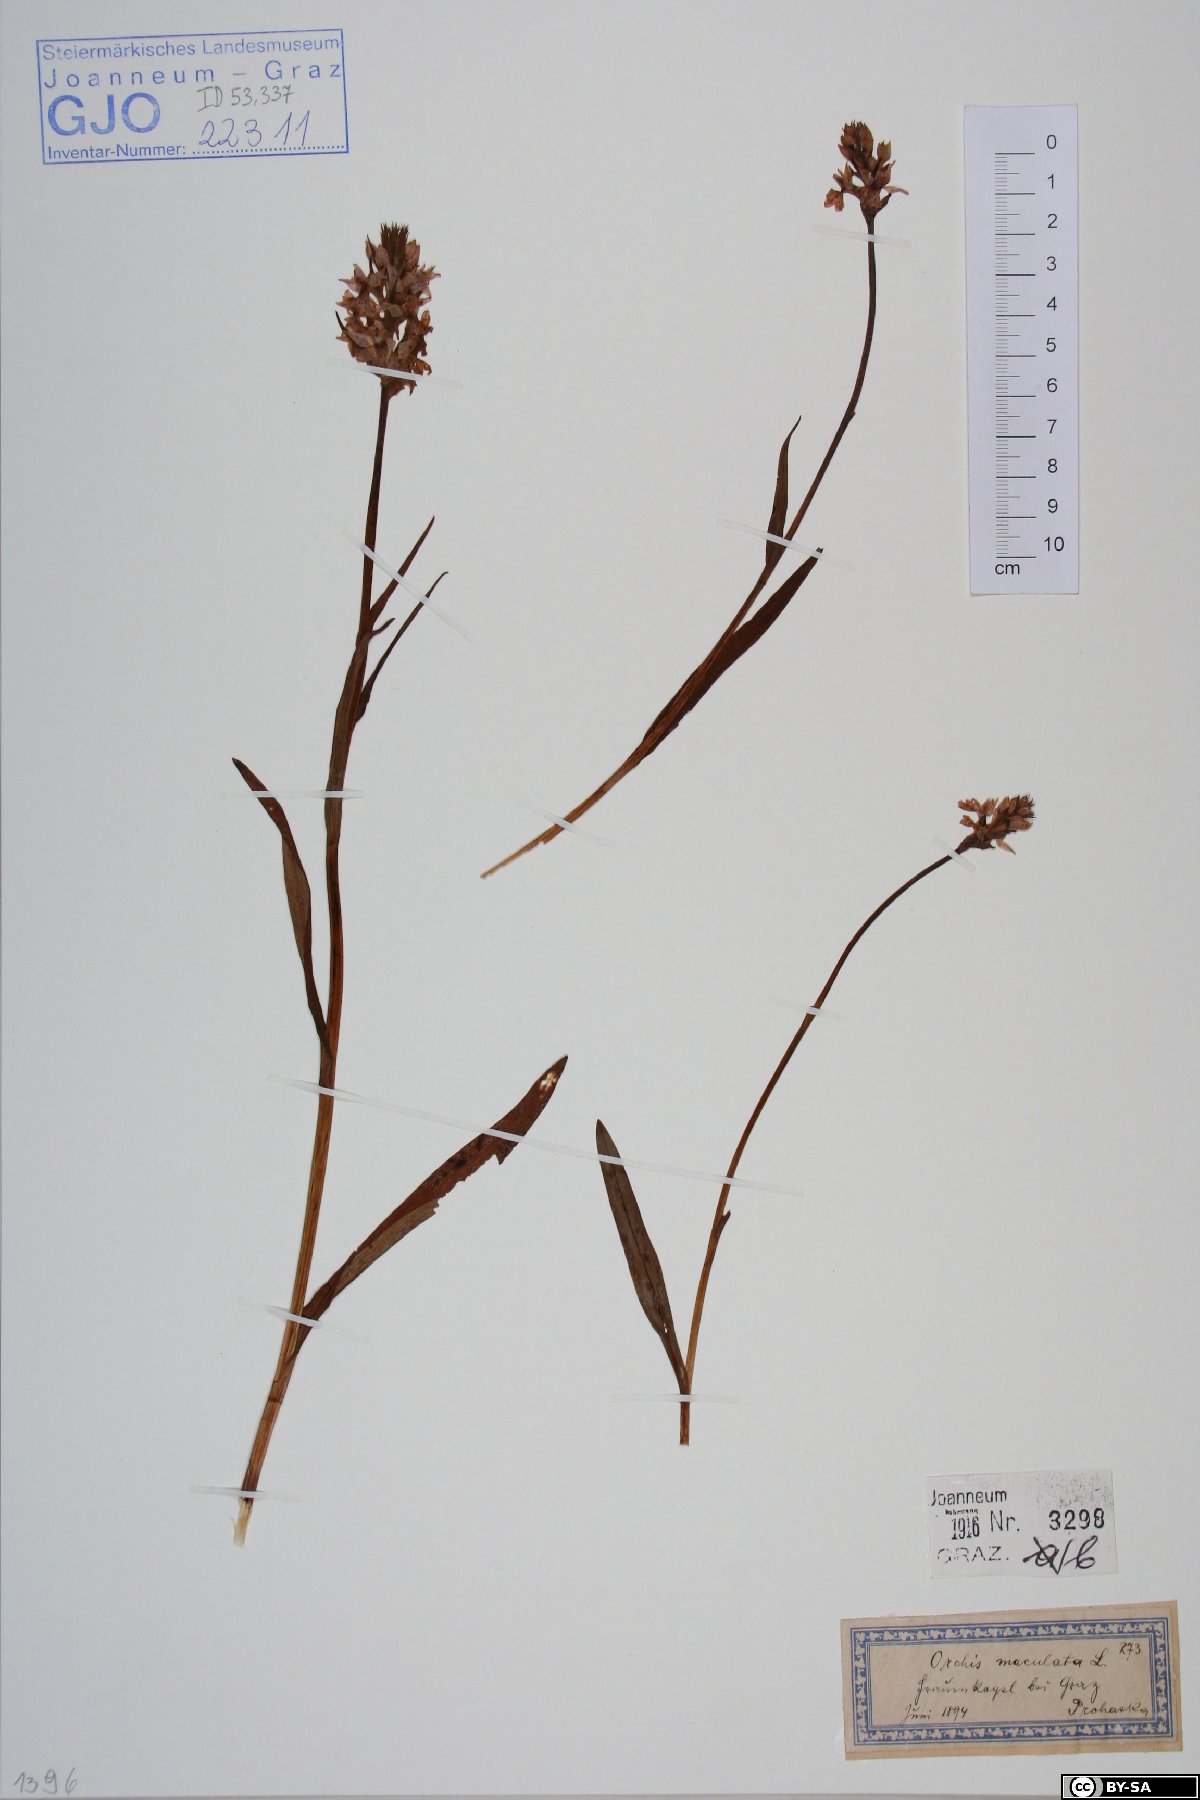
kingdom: Plantae
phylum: Tracheophyta
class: Liliopsida
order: Asparagales
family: Orchidaceae
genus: Dactylorhiza
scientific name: Dactylorhiza maculata
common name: Heath spotted-orchid
